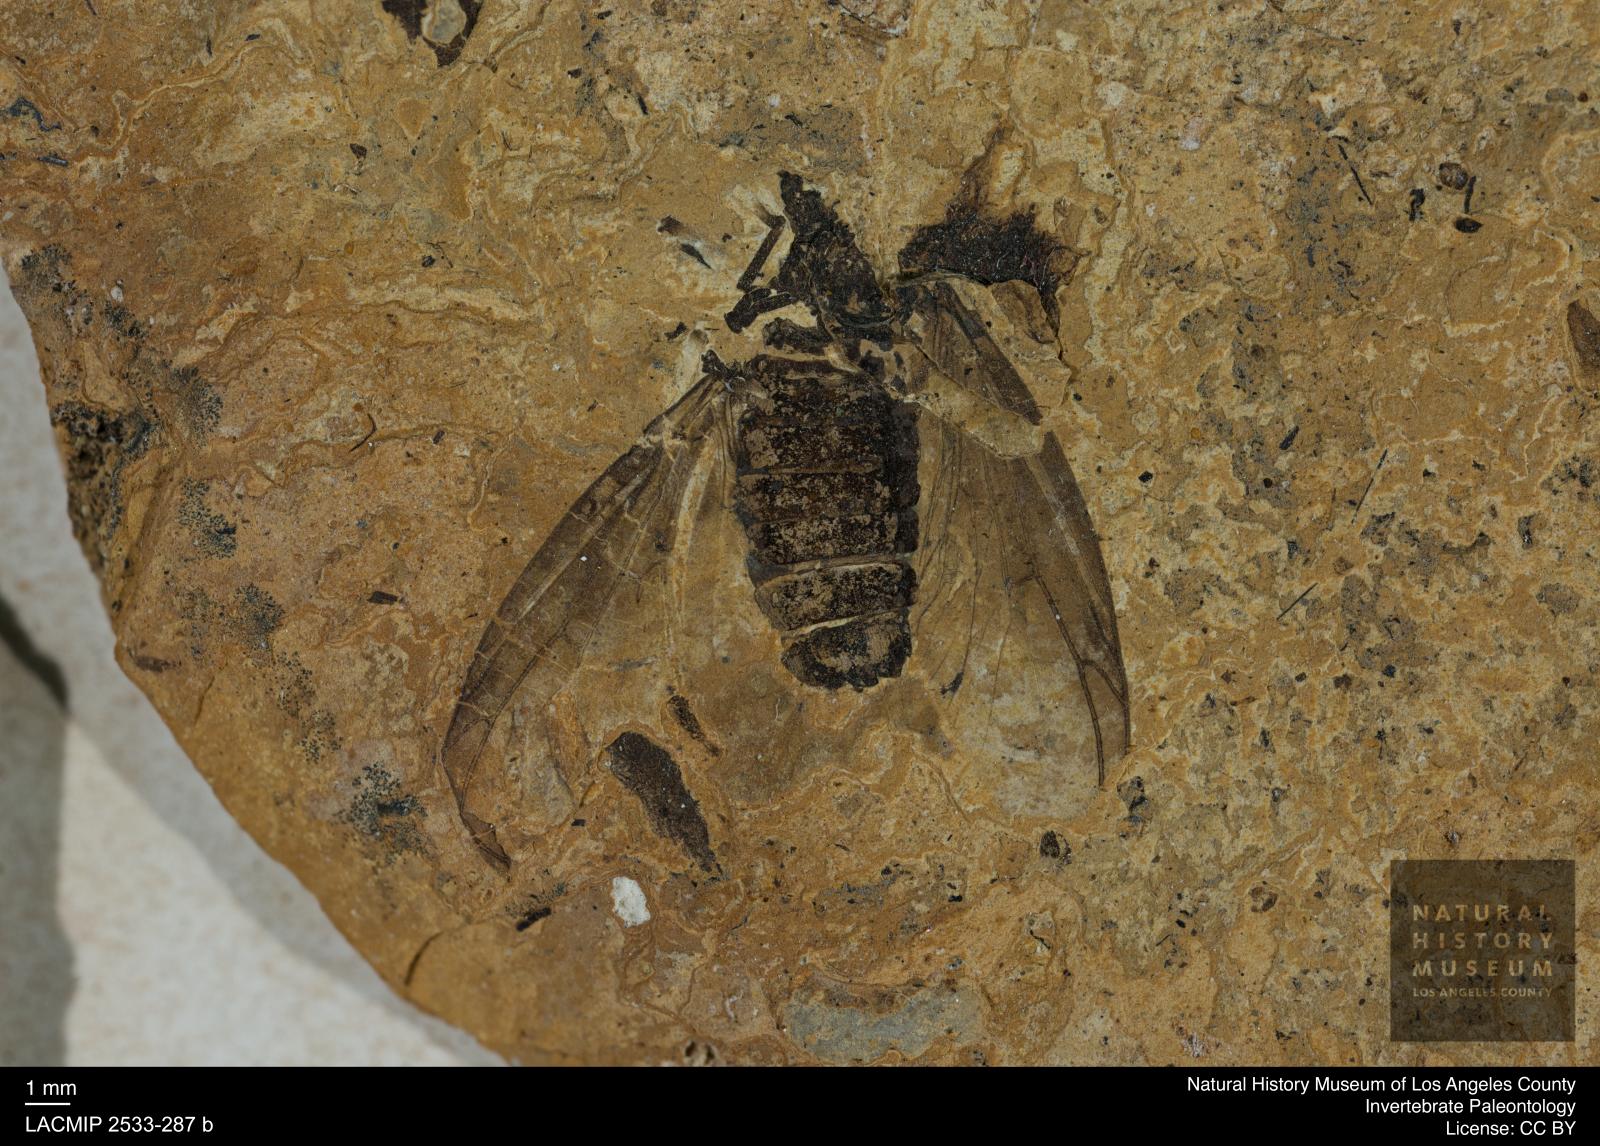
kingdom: Animalia
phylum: Arthropoda
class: Insecta
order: Diptera
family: Bibionidae
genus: Plecia
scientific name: Plecia dubia
